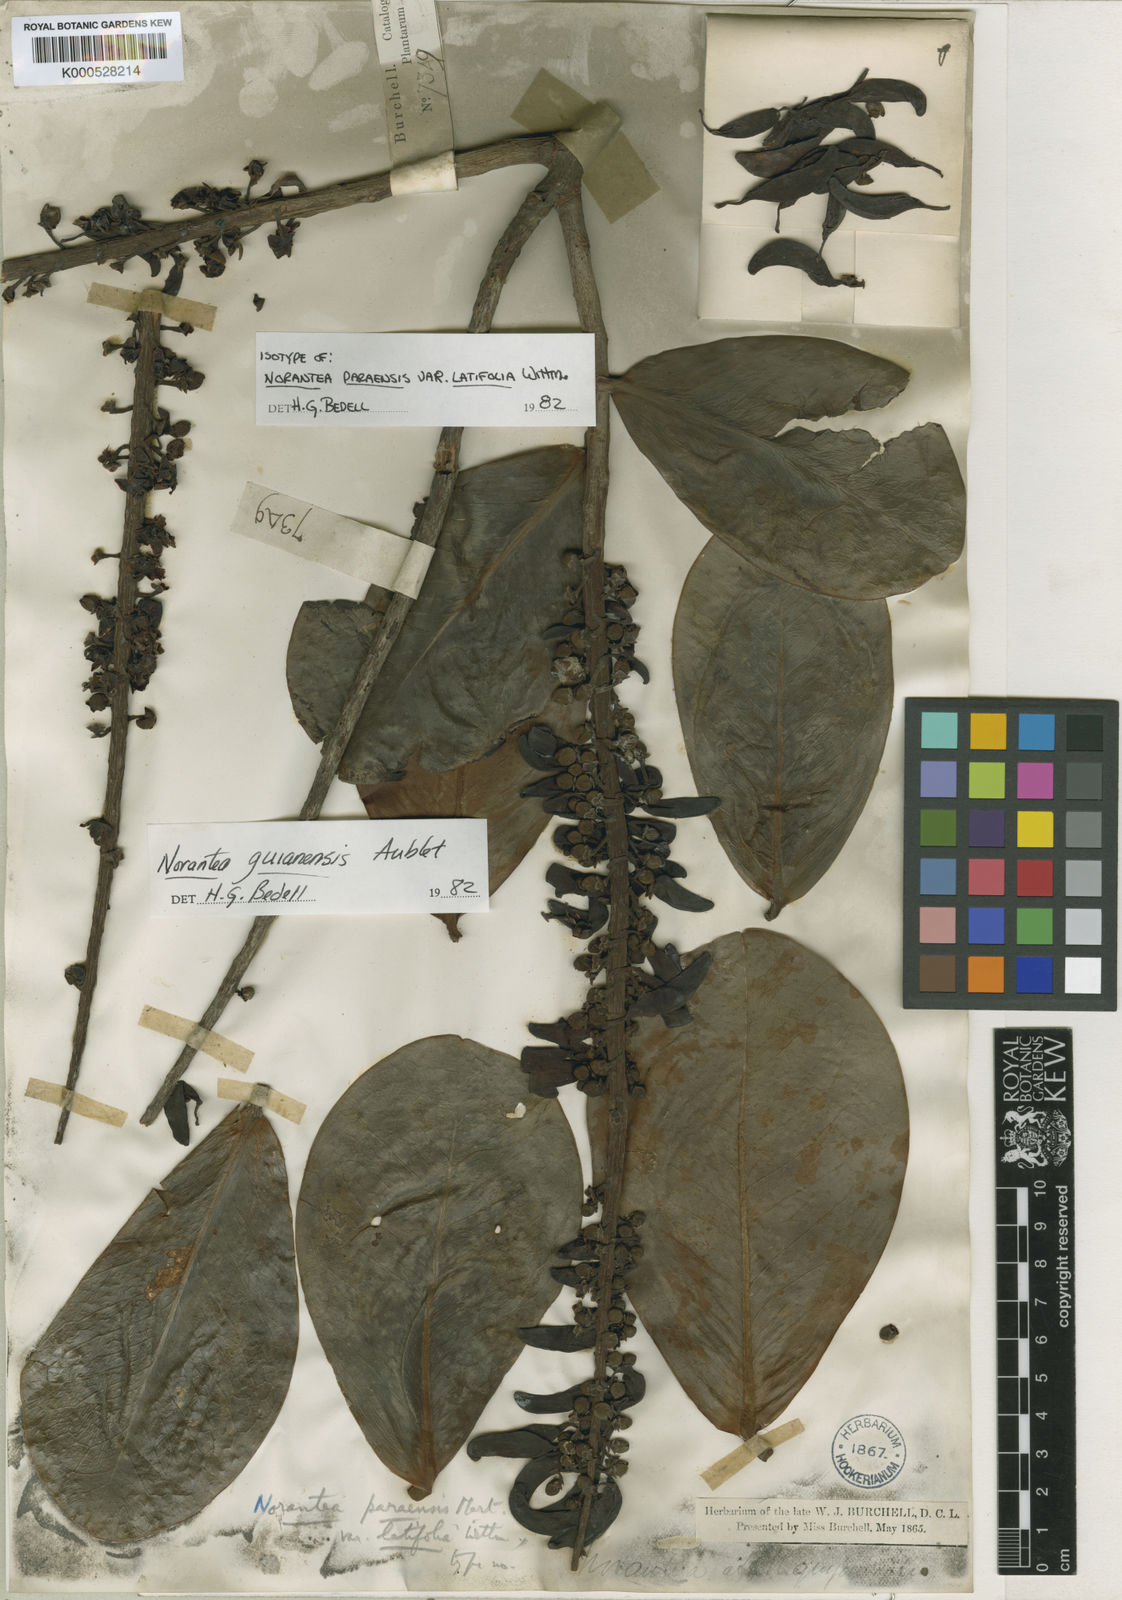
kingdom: Plantae
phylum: Tracheophyta
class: Magnoliopsida
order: Ericales
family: Marcgraviaceae
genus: Norantea
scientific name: Norantea guianensis
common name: Red hot poker vine
